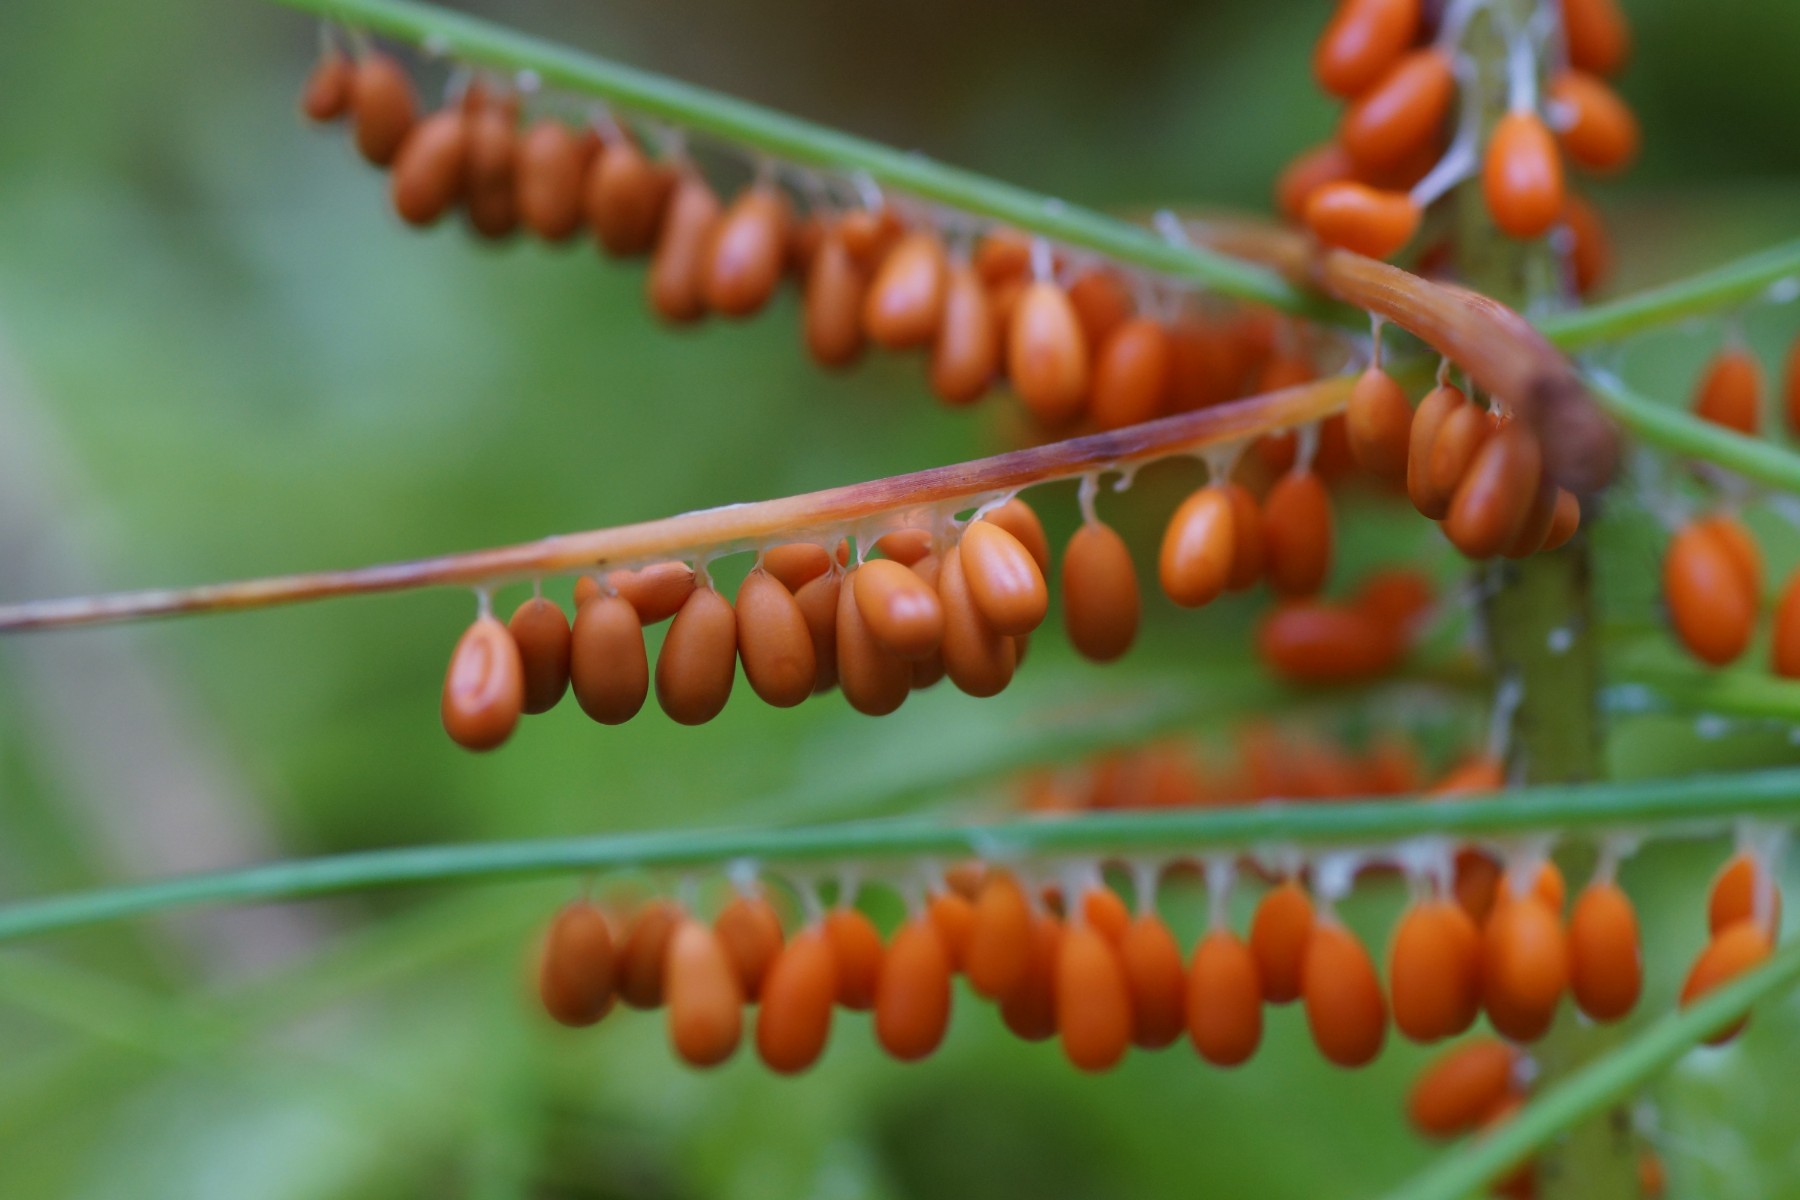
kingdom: Protozoa
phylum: Mycetozoa
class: Myxomycetes
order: Physarales
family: Physaraceae
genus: Leocarpus
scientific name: Leocarpus fragilis
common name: poleret glatfrø
